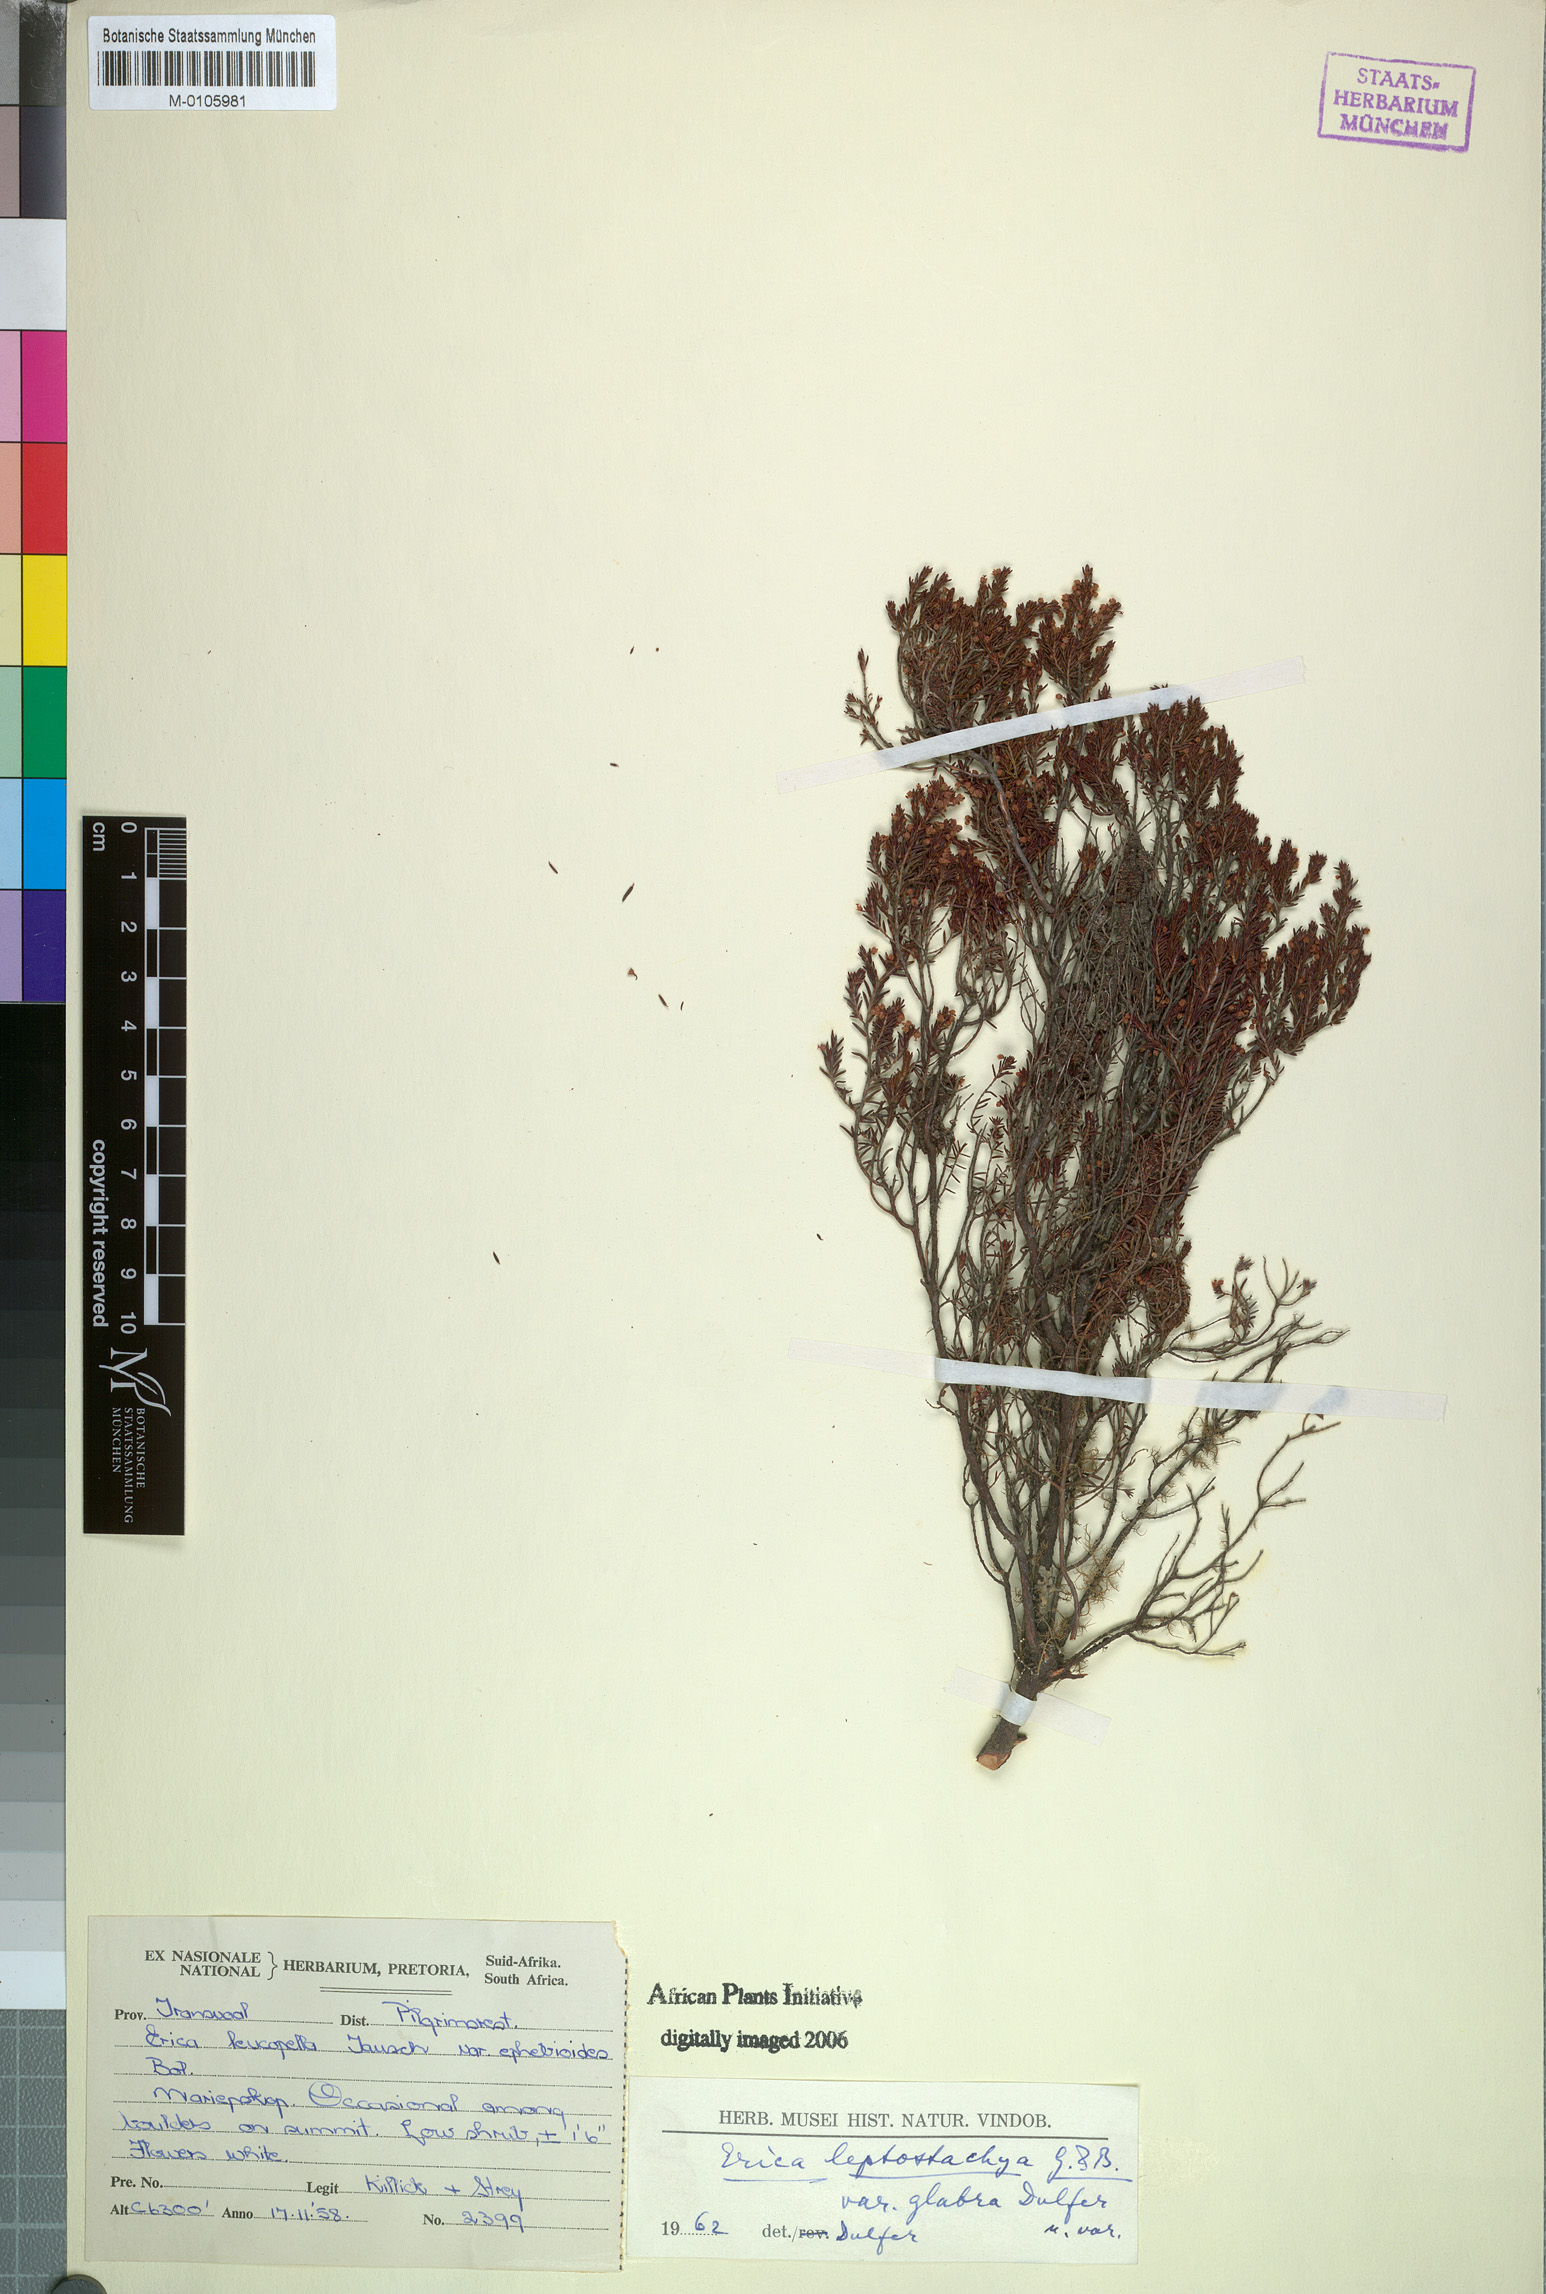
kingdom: Plantae
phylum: Tracheophyta
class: Magnoliopsida
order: Ericales
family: Ericaceae
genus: Erica
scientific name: Erica scoparia
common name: Green heather
